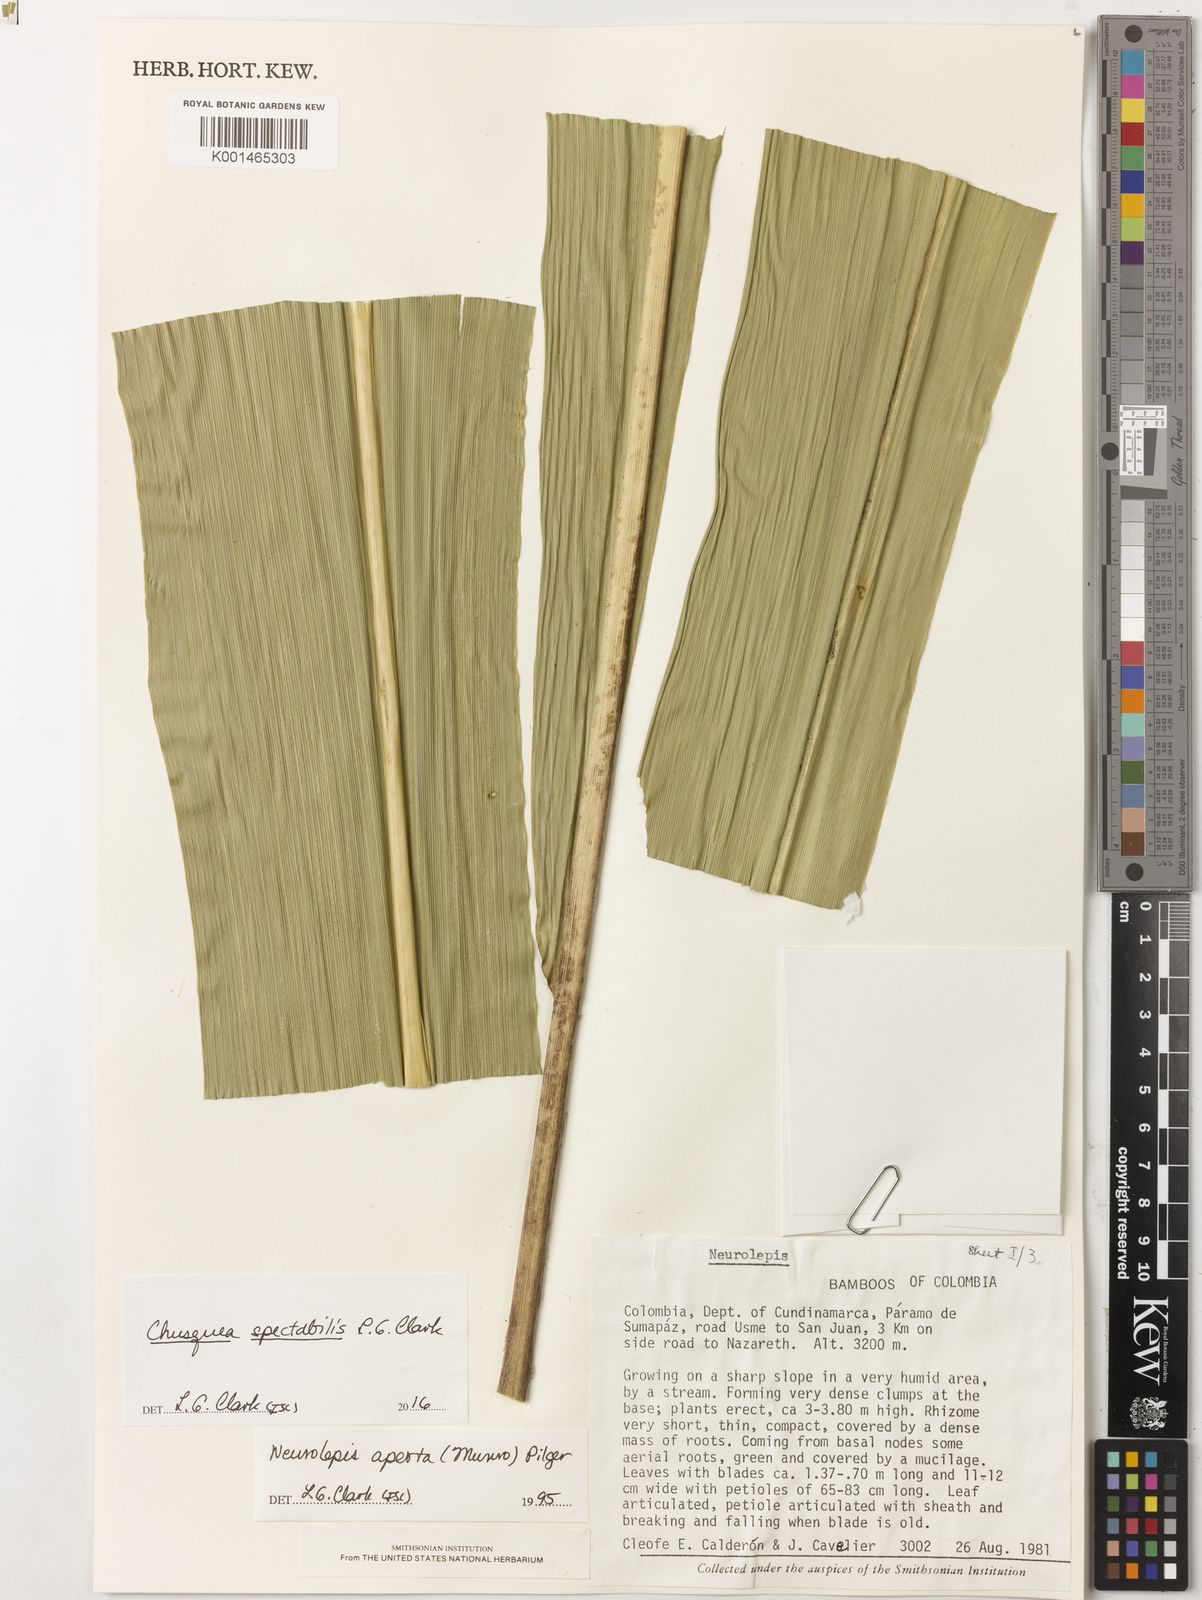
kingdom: Plantae
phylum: Tracheophyta
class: Liliopsida
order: Poales
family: Poaceae
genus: Chusquea
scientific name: Chusquea spectabilis
